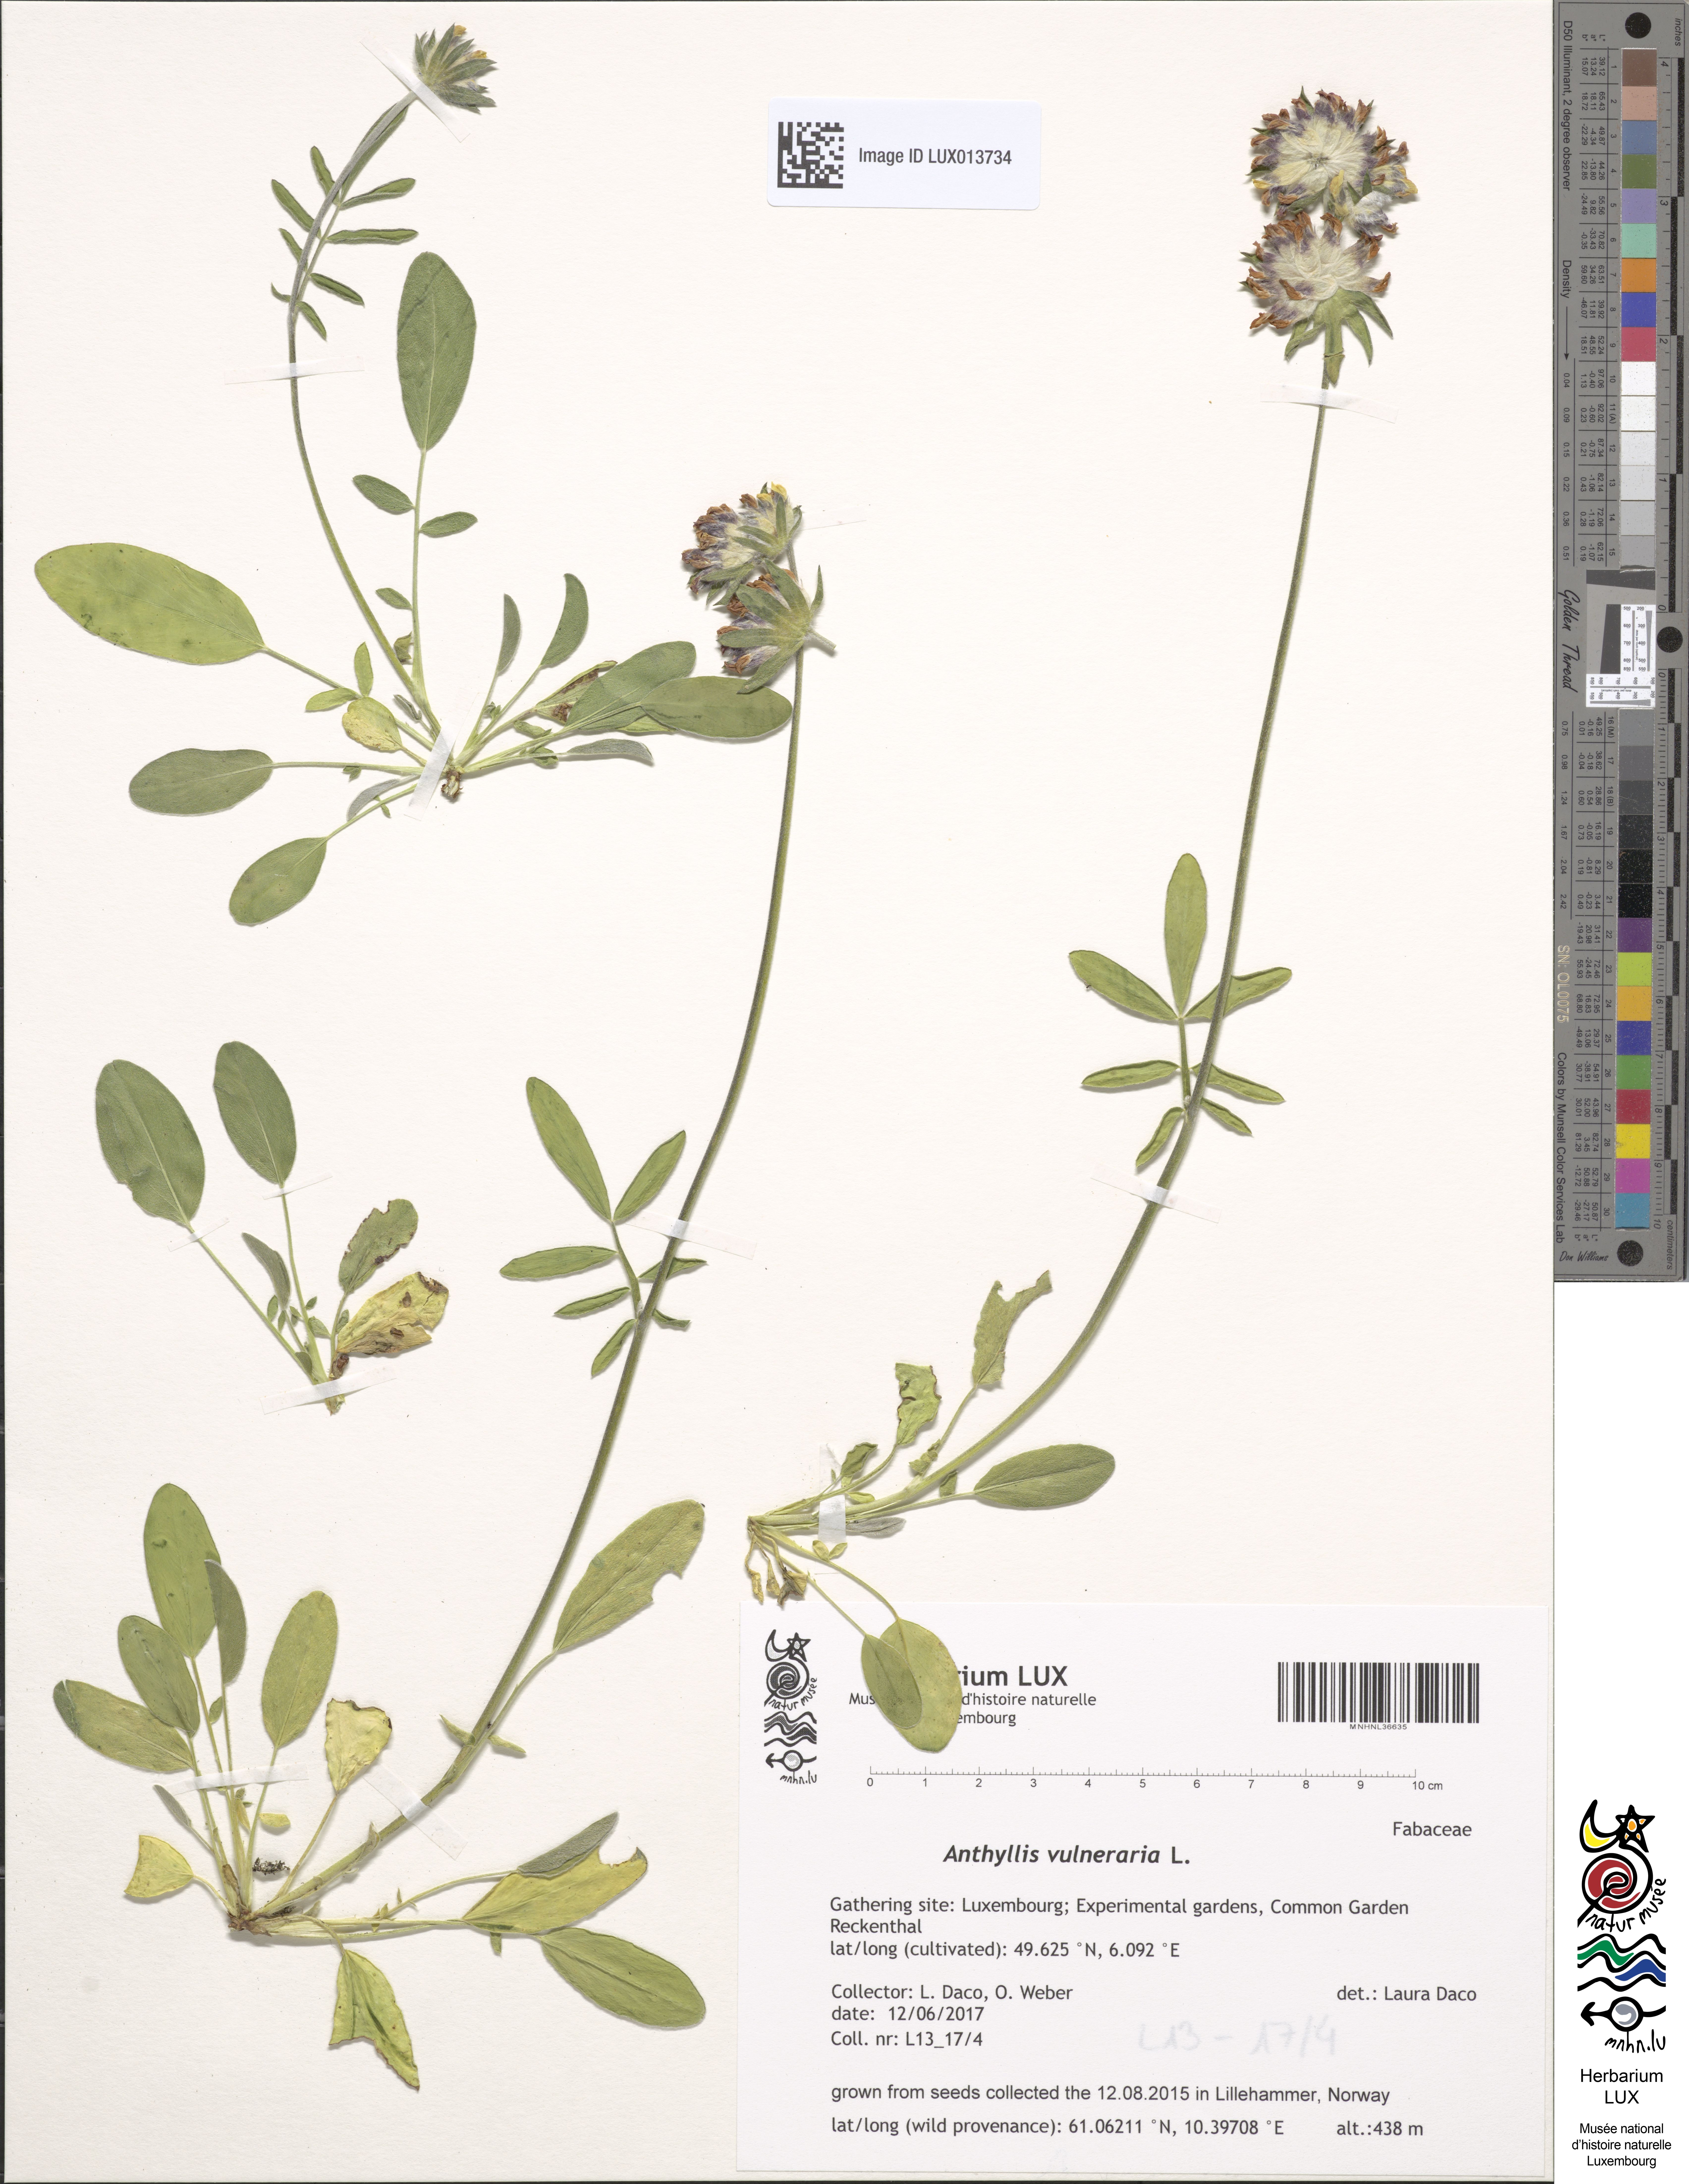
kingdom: Plantae
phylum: Tracheophyta
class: Magnoliopsida
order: Fabales
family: Fabaceae
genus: Anthyllis
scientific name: Anthyllis vulneraria
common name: Kidney vetch
